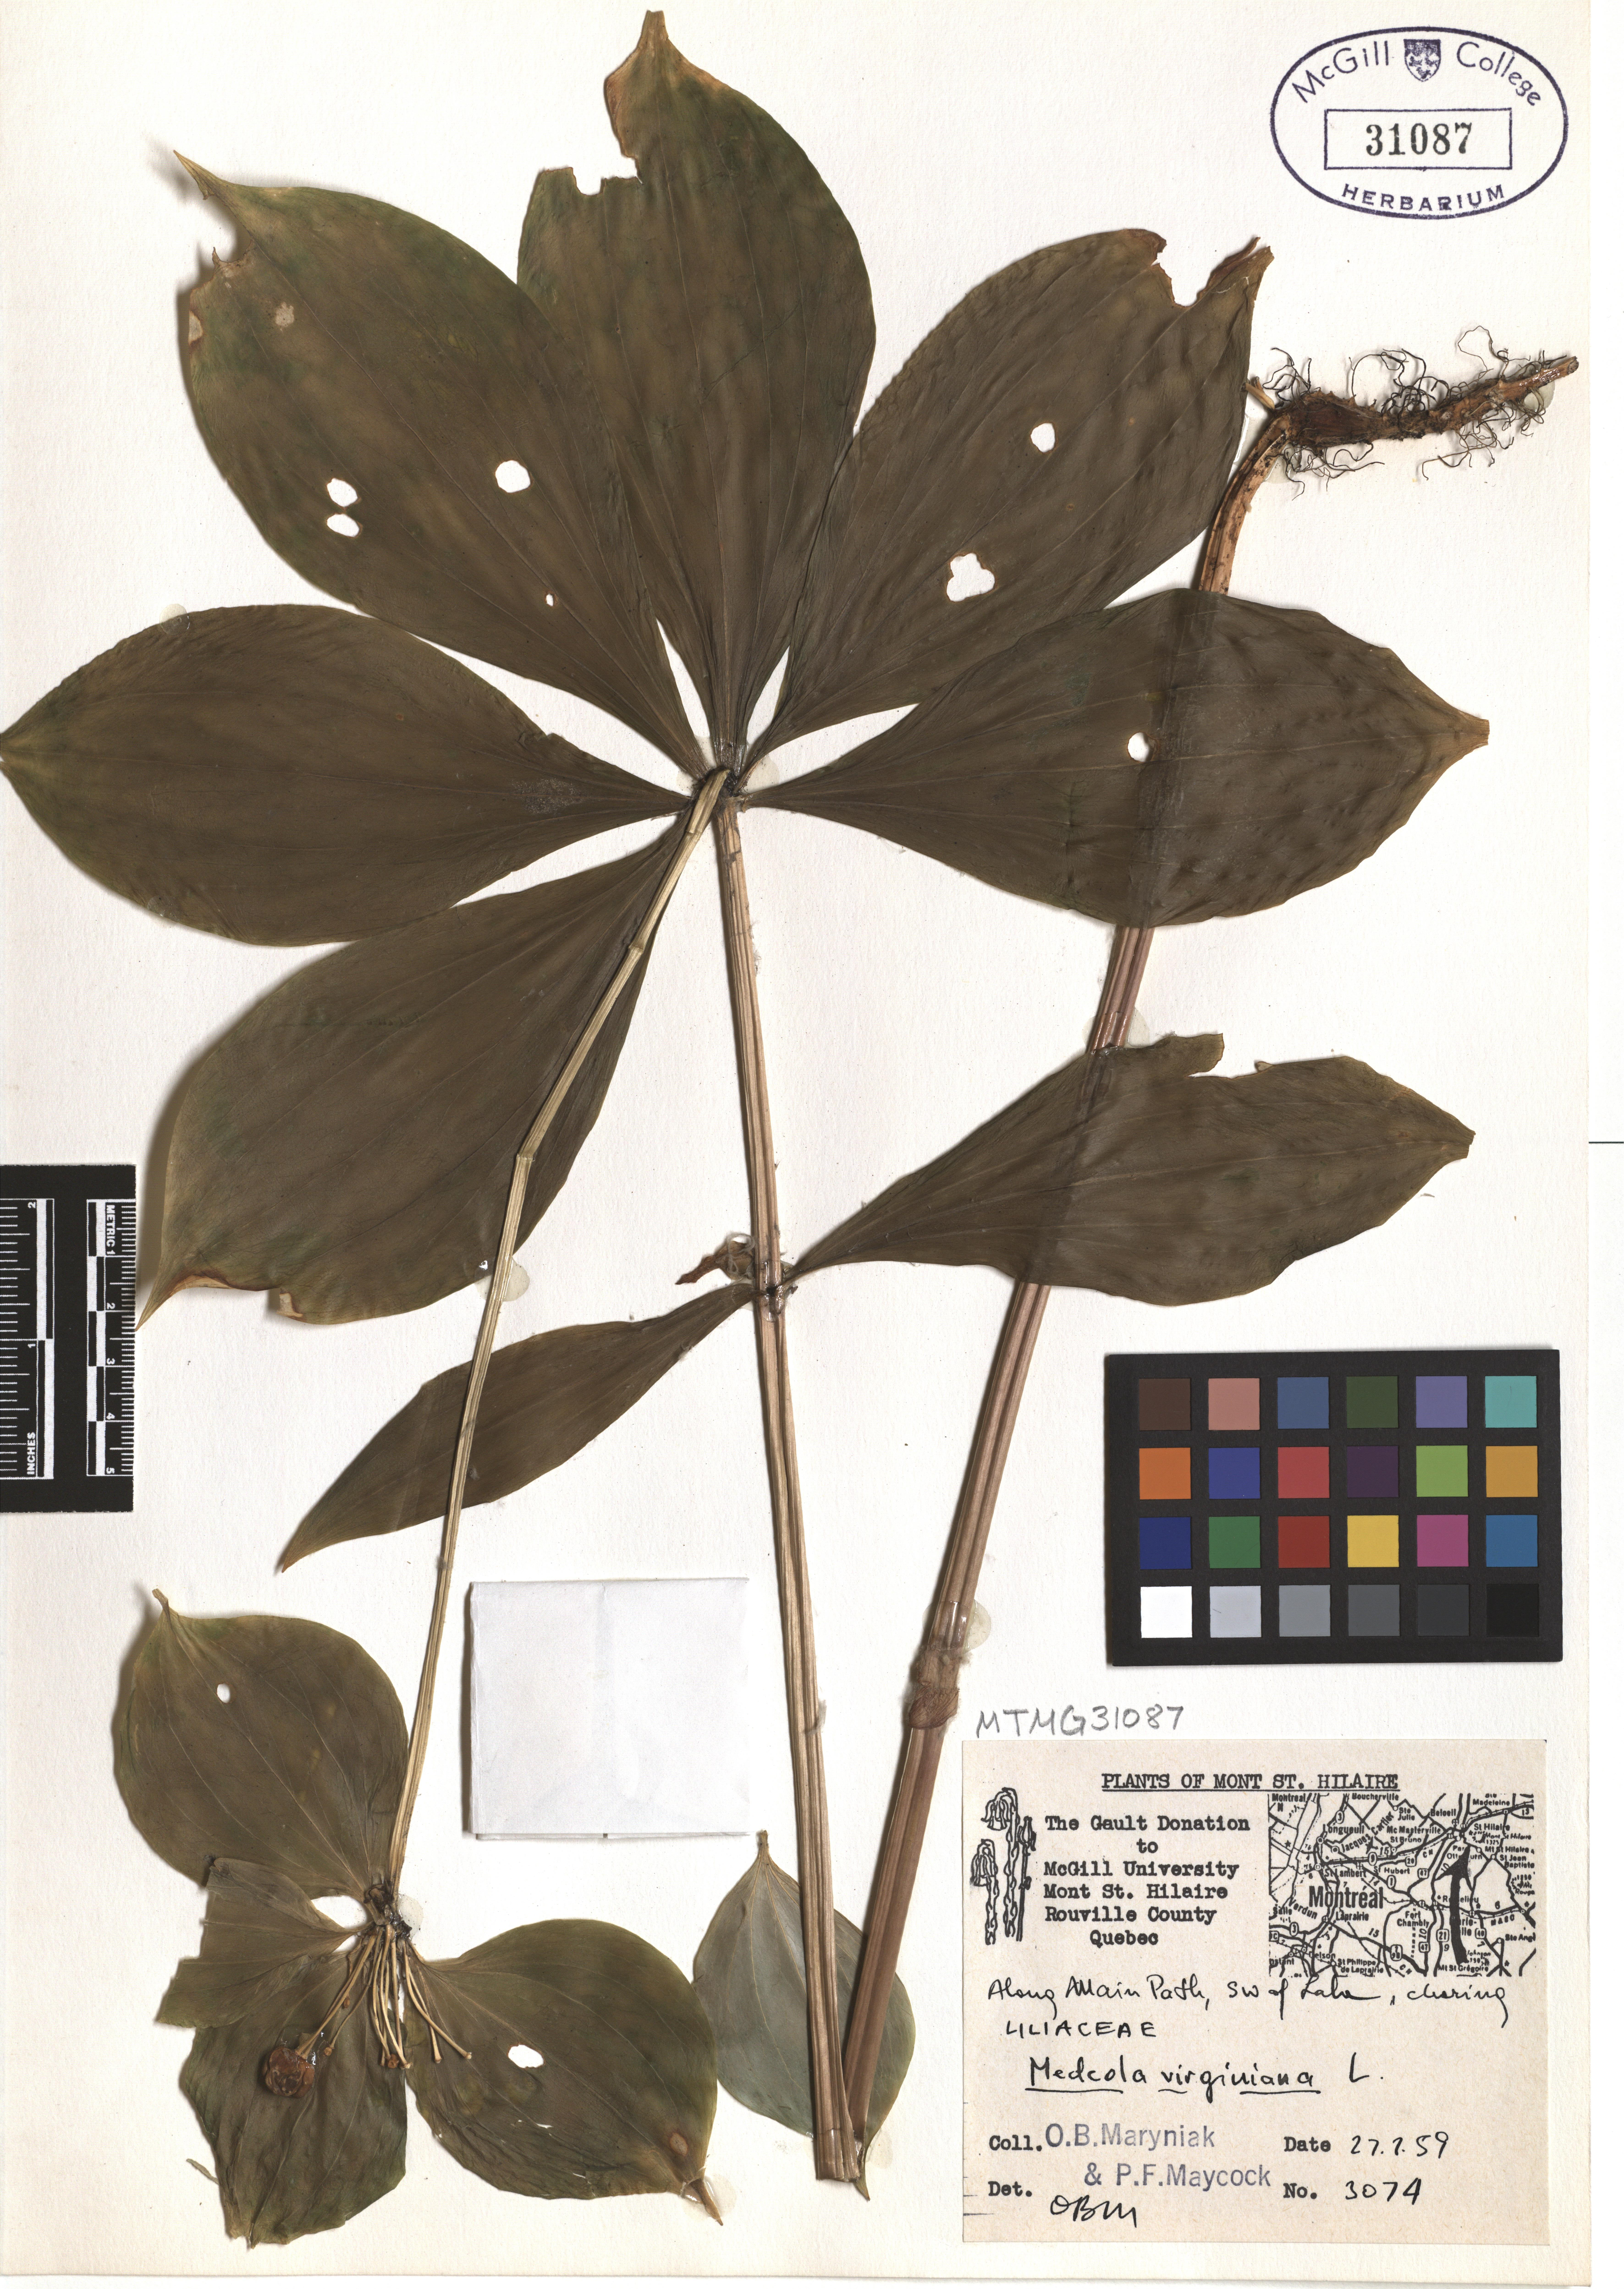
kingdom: Plantae
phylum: Tracheophyta
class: Liliopsida
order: Liliales
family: Liliaceae
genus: Medeola
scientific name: Medeola virginiana
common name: Indian cucumber-root
